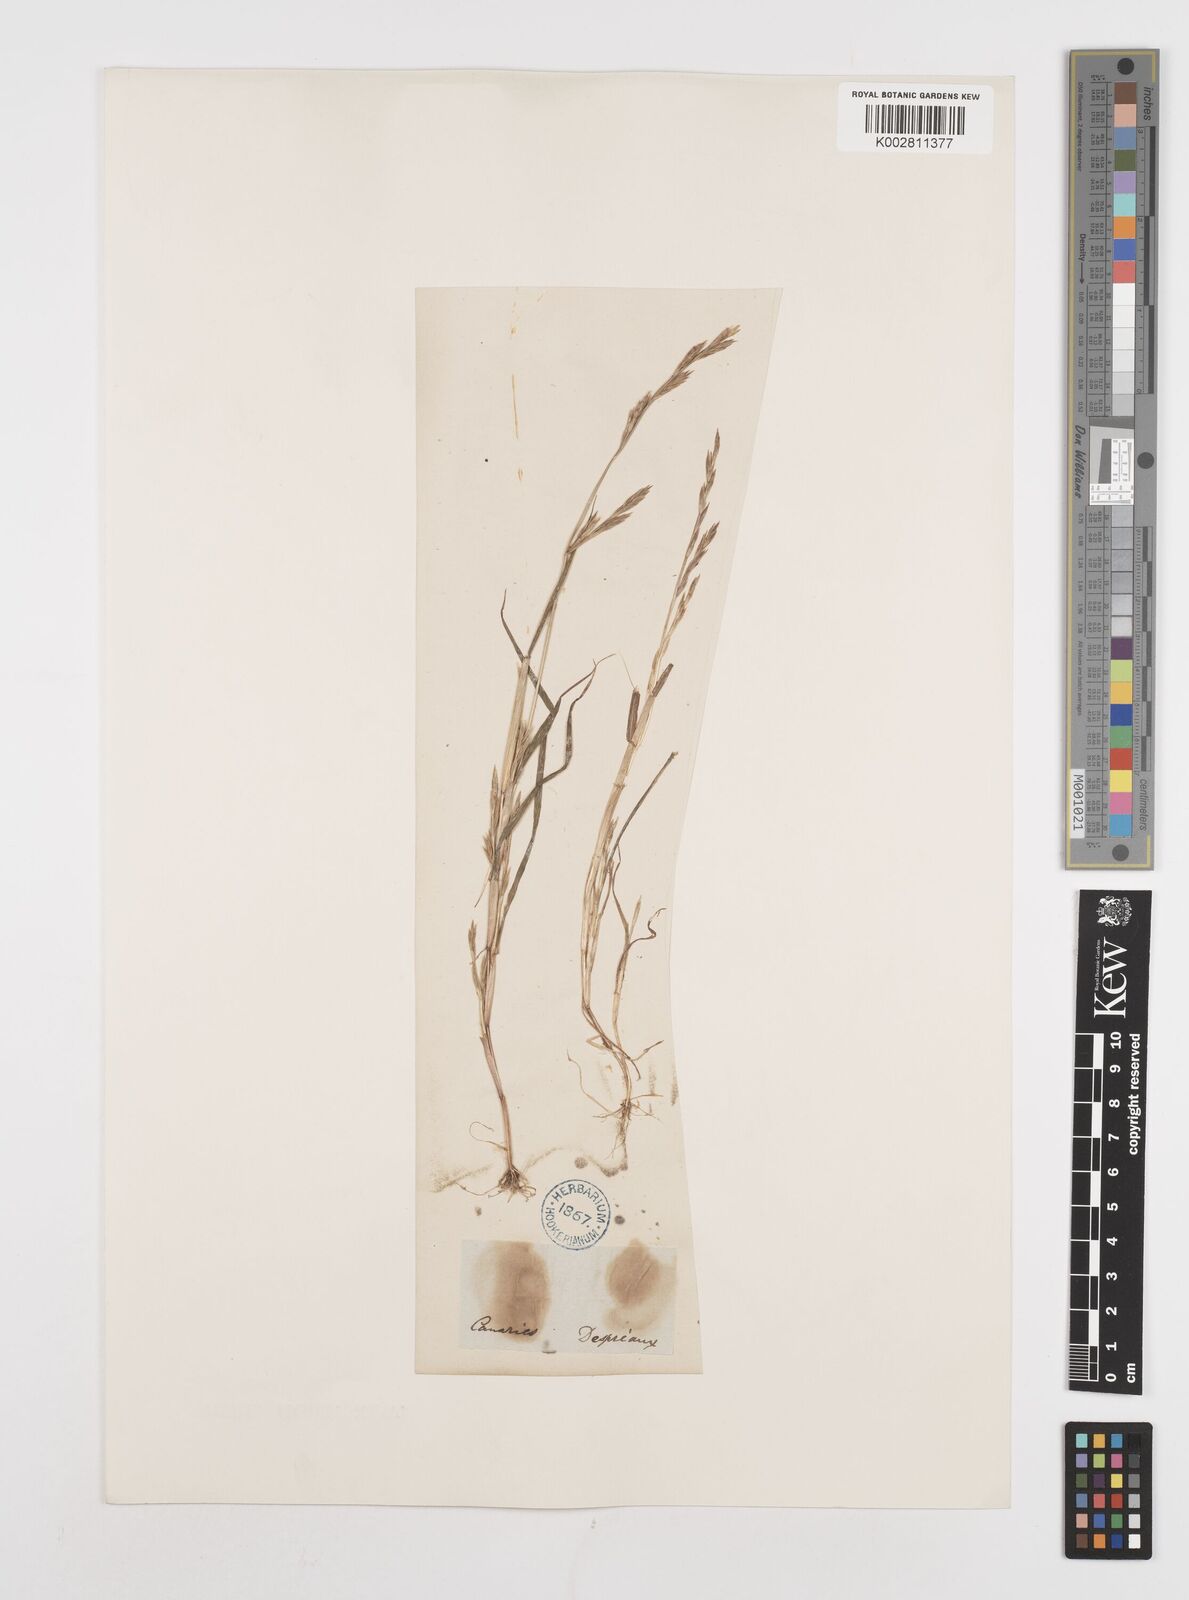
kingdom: Plantae
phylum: Tracheophyta
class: Liliopsida
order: Poales
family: Poaceae
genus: Castellia
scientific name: Castellia tuberculosa
